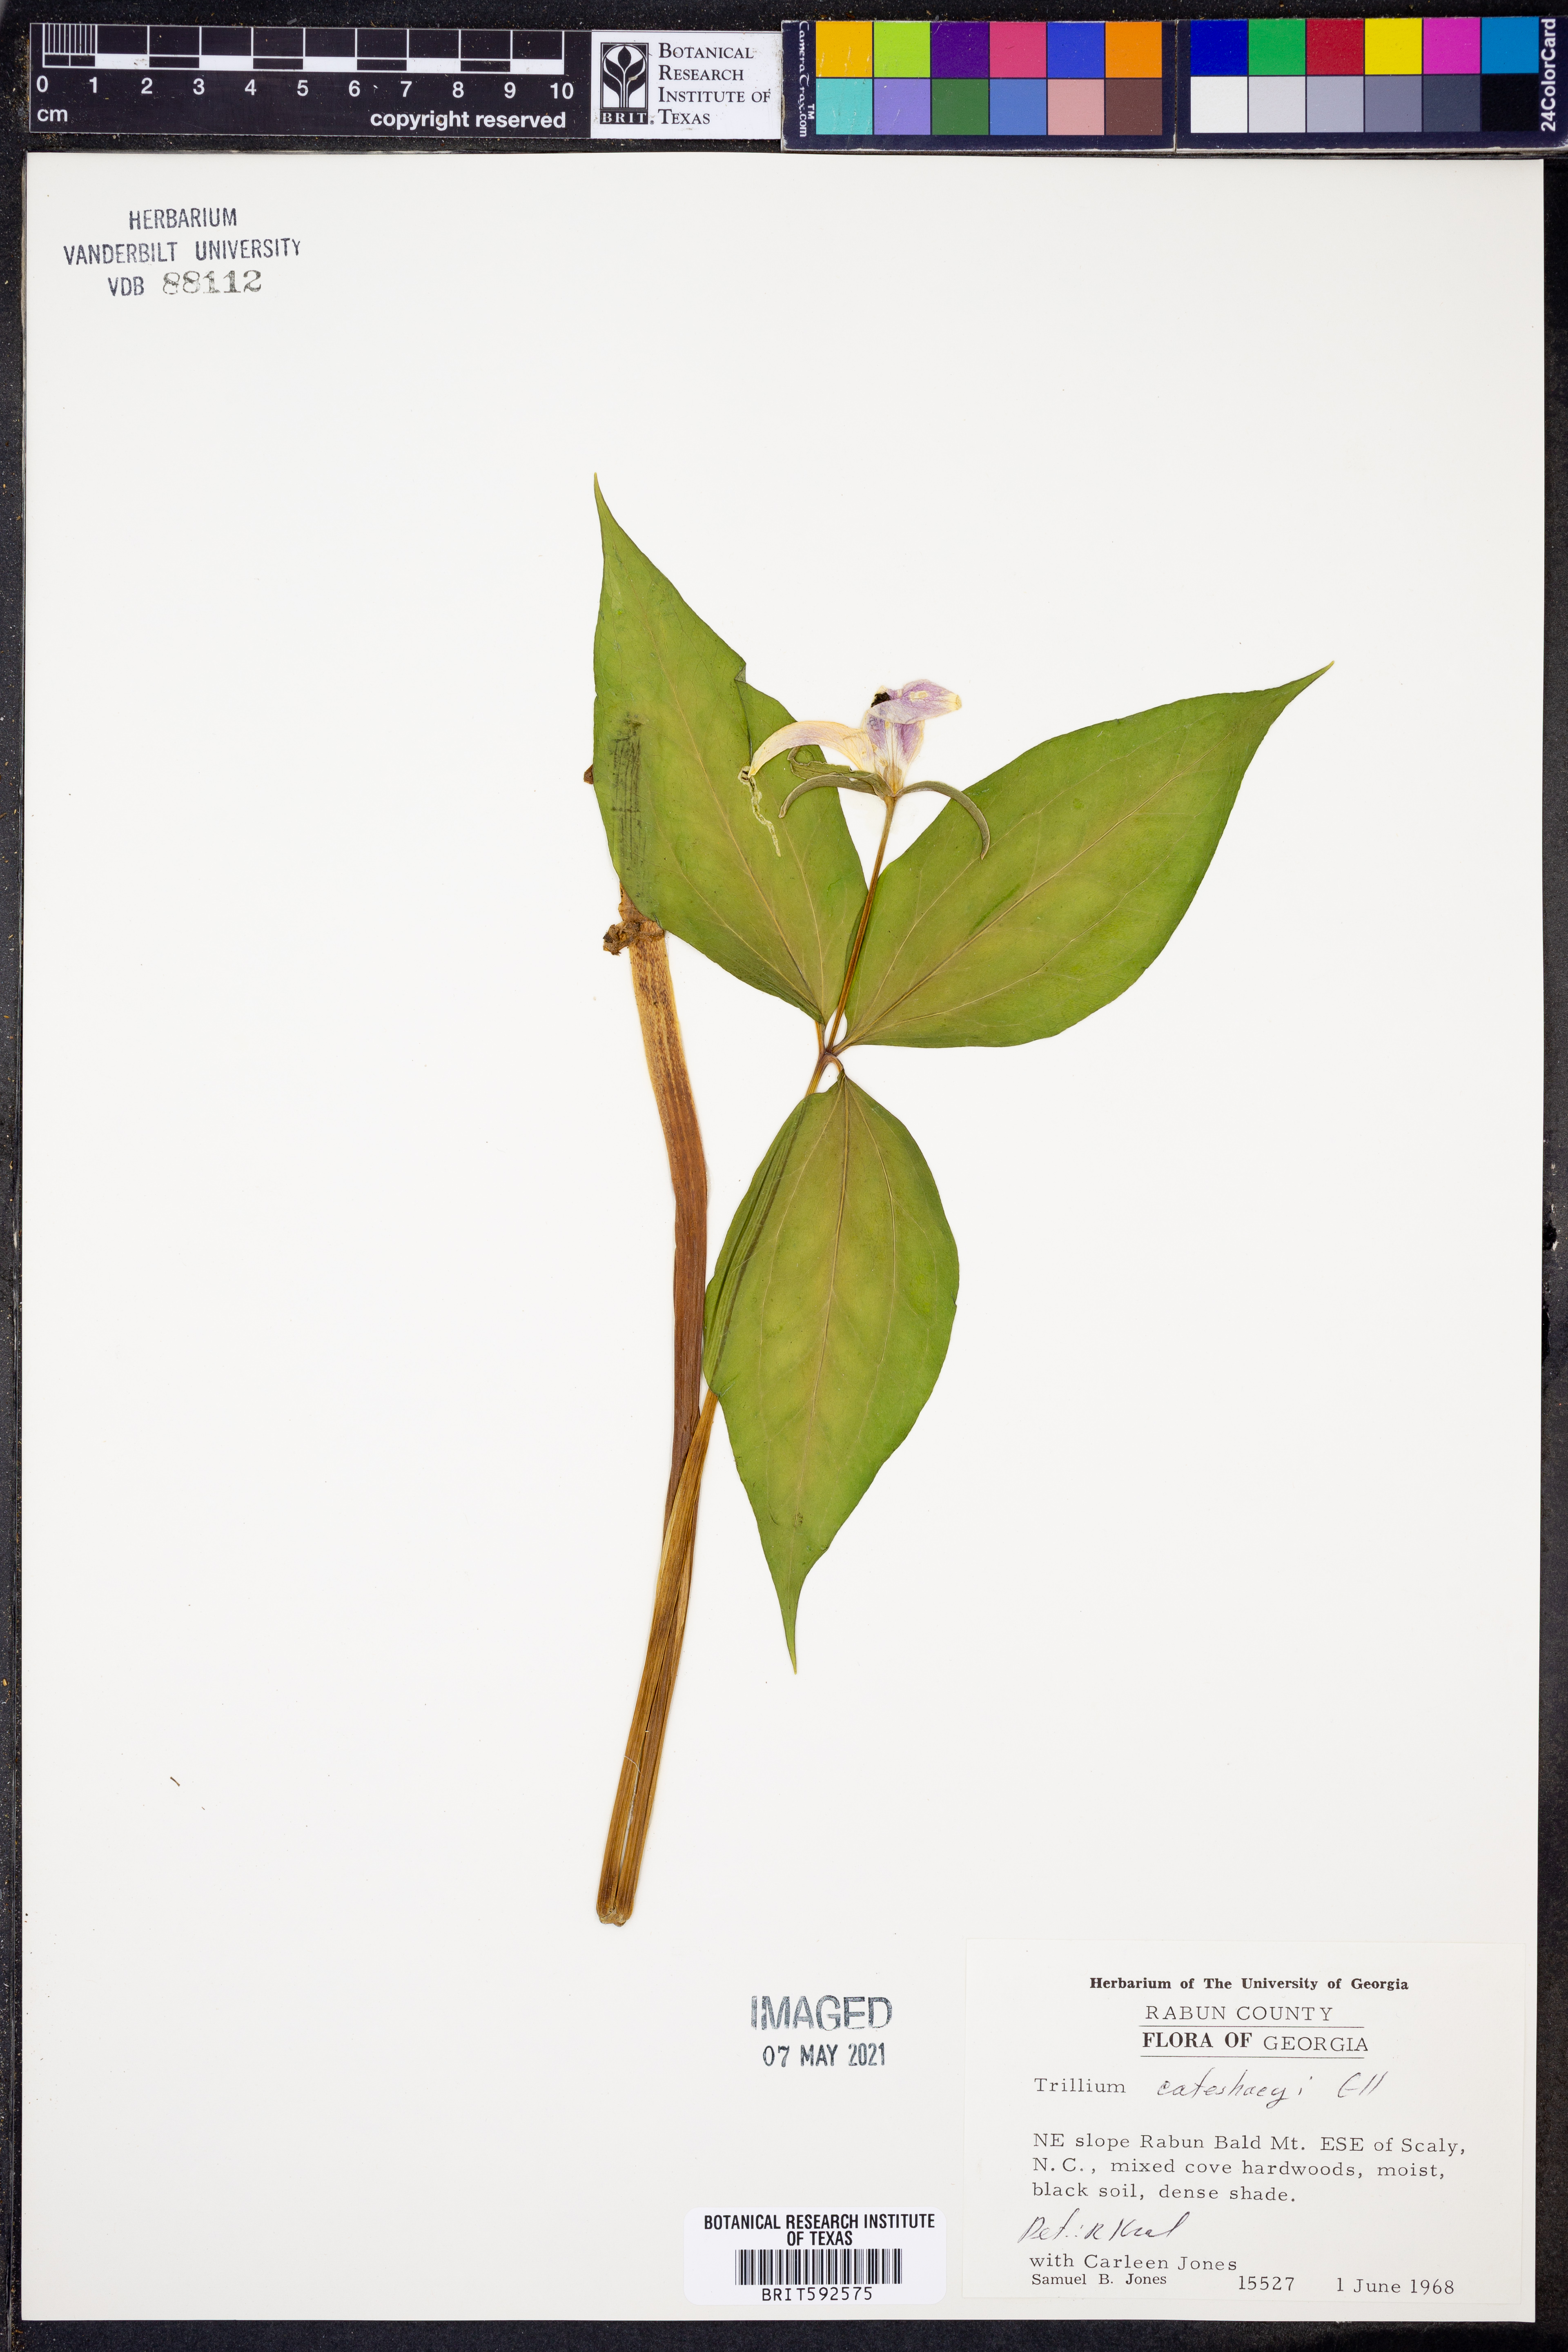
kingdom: Plantae
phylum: Tracheophyta
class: Liliopsida
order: Liliales
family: Melanthiaceae
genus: Trillium
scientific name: Trillium catesbaei
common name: Bashful trillium
